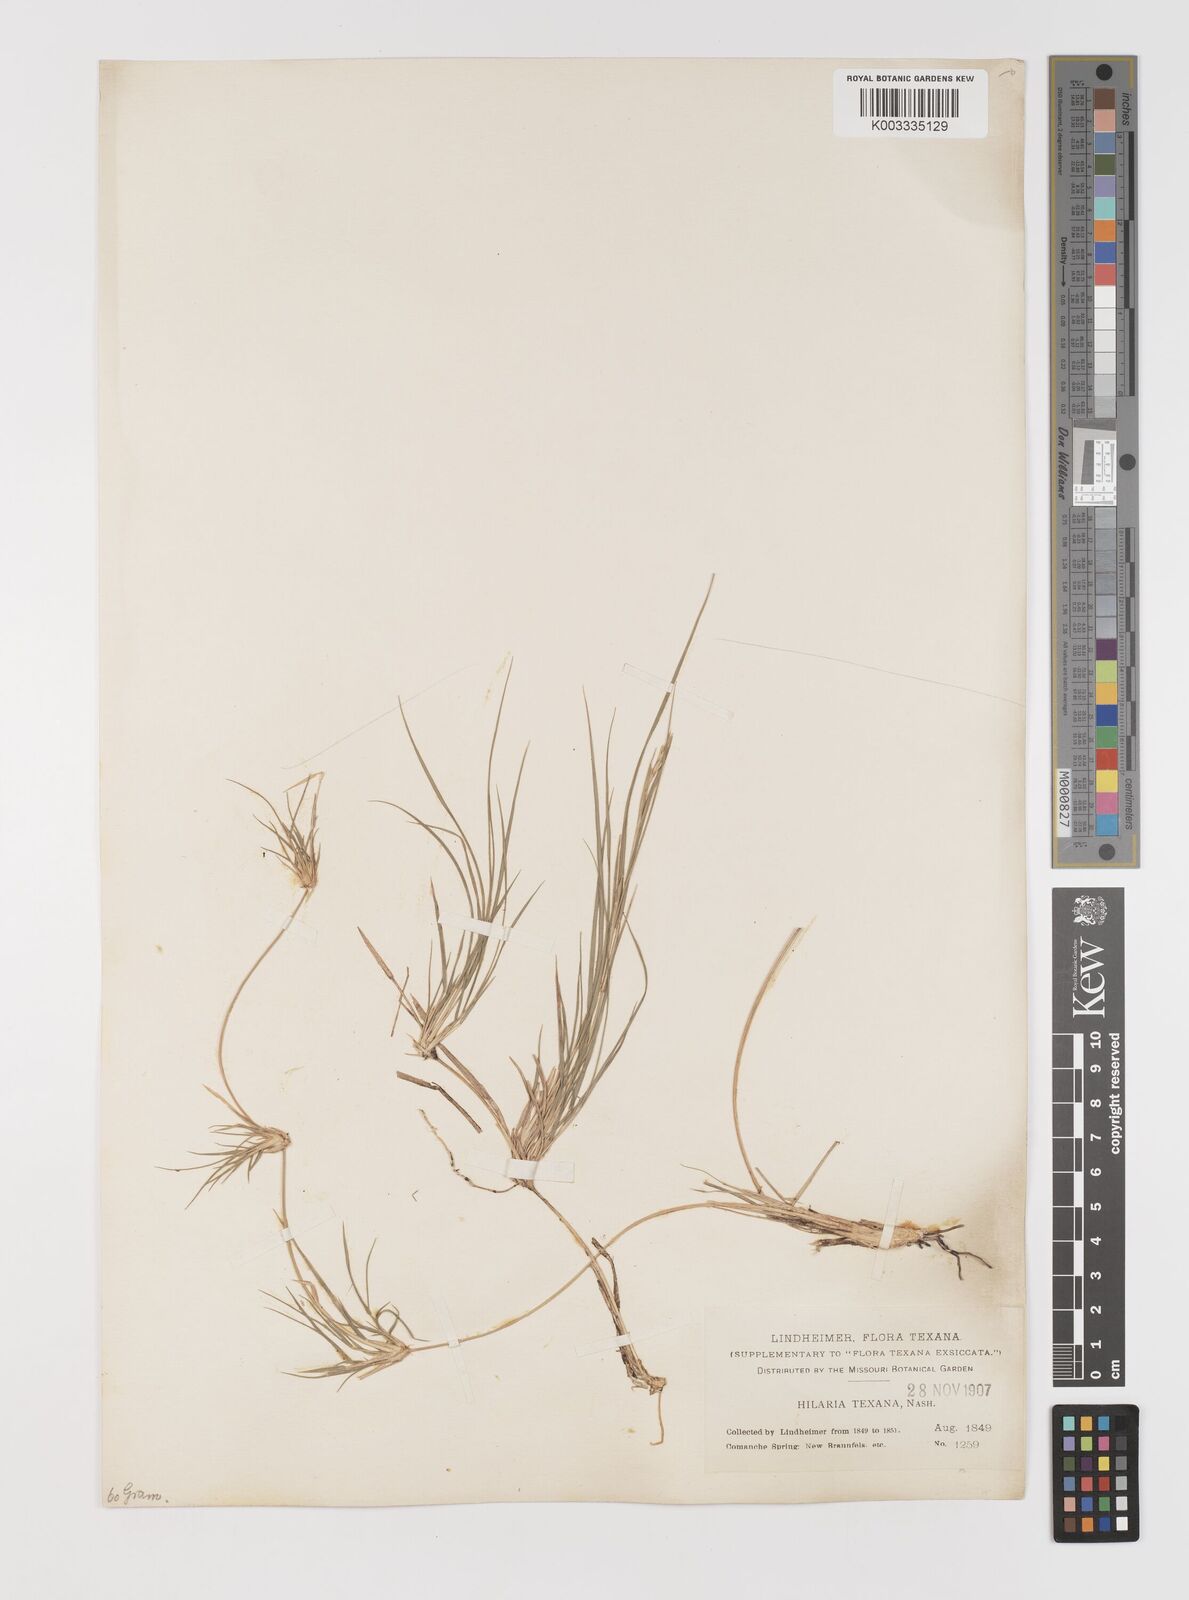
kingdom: Plantae
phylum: Tracheophyta
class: Liliopsida
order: Poales
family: Poaceae
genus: Hilaria
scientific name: Hilaria belangeri
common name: Curly-mesquite
